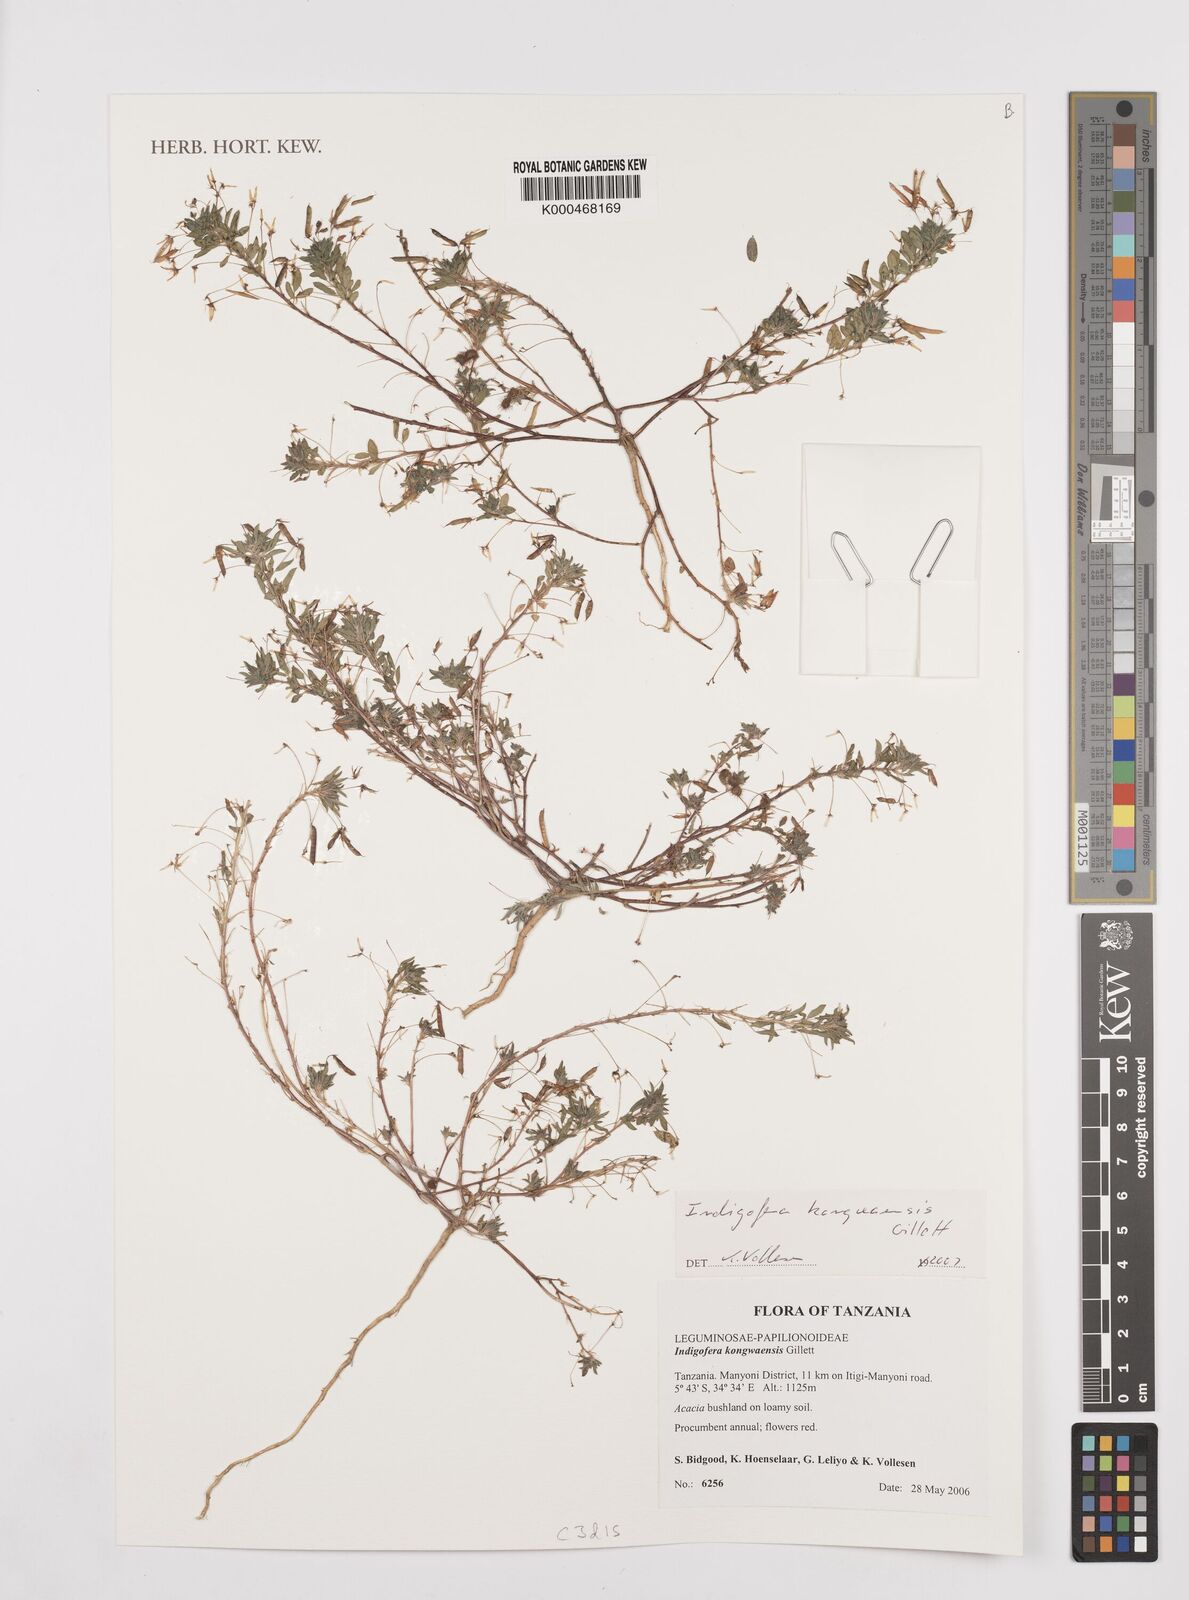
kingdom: Plantae
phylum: Tracheophyta
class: Magnoliopsida
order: Fabales
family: Fabaceae
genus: Indigofera
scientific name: Indigofera kongwaensis
